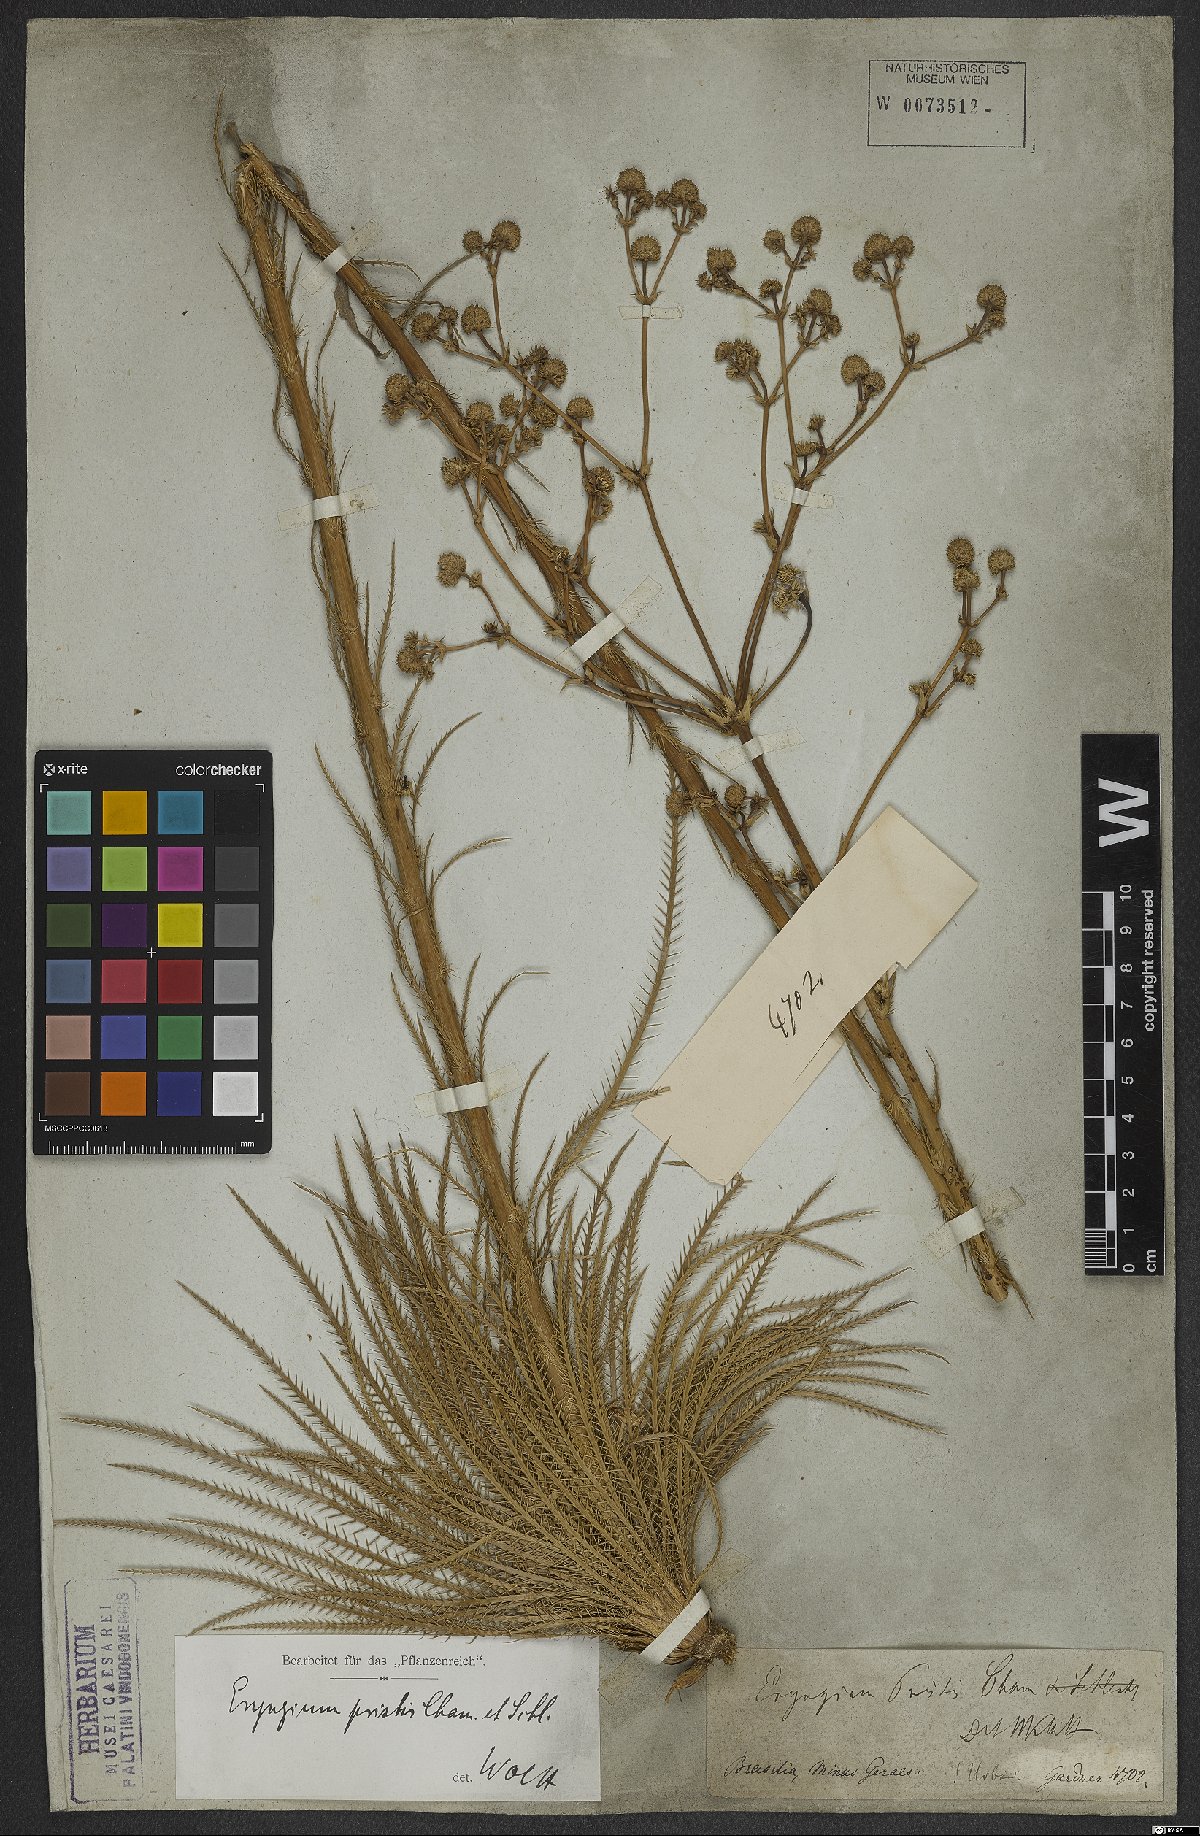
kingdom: Plantae
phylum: Tracheophyta
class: Magnoliopsida
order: Apiales
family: Apiaceae
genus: Eryngium
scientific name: Eryngium pristis
